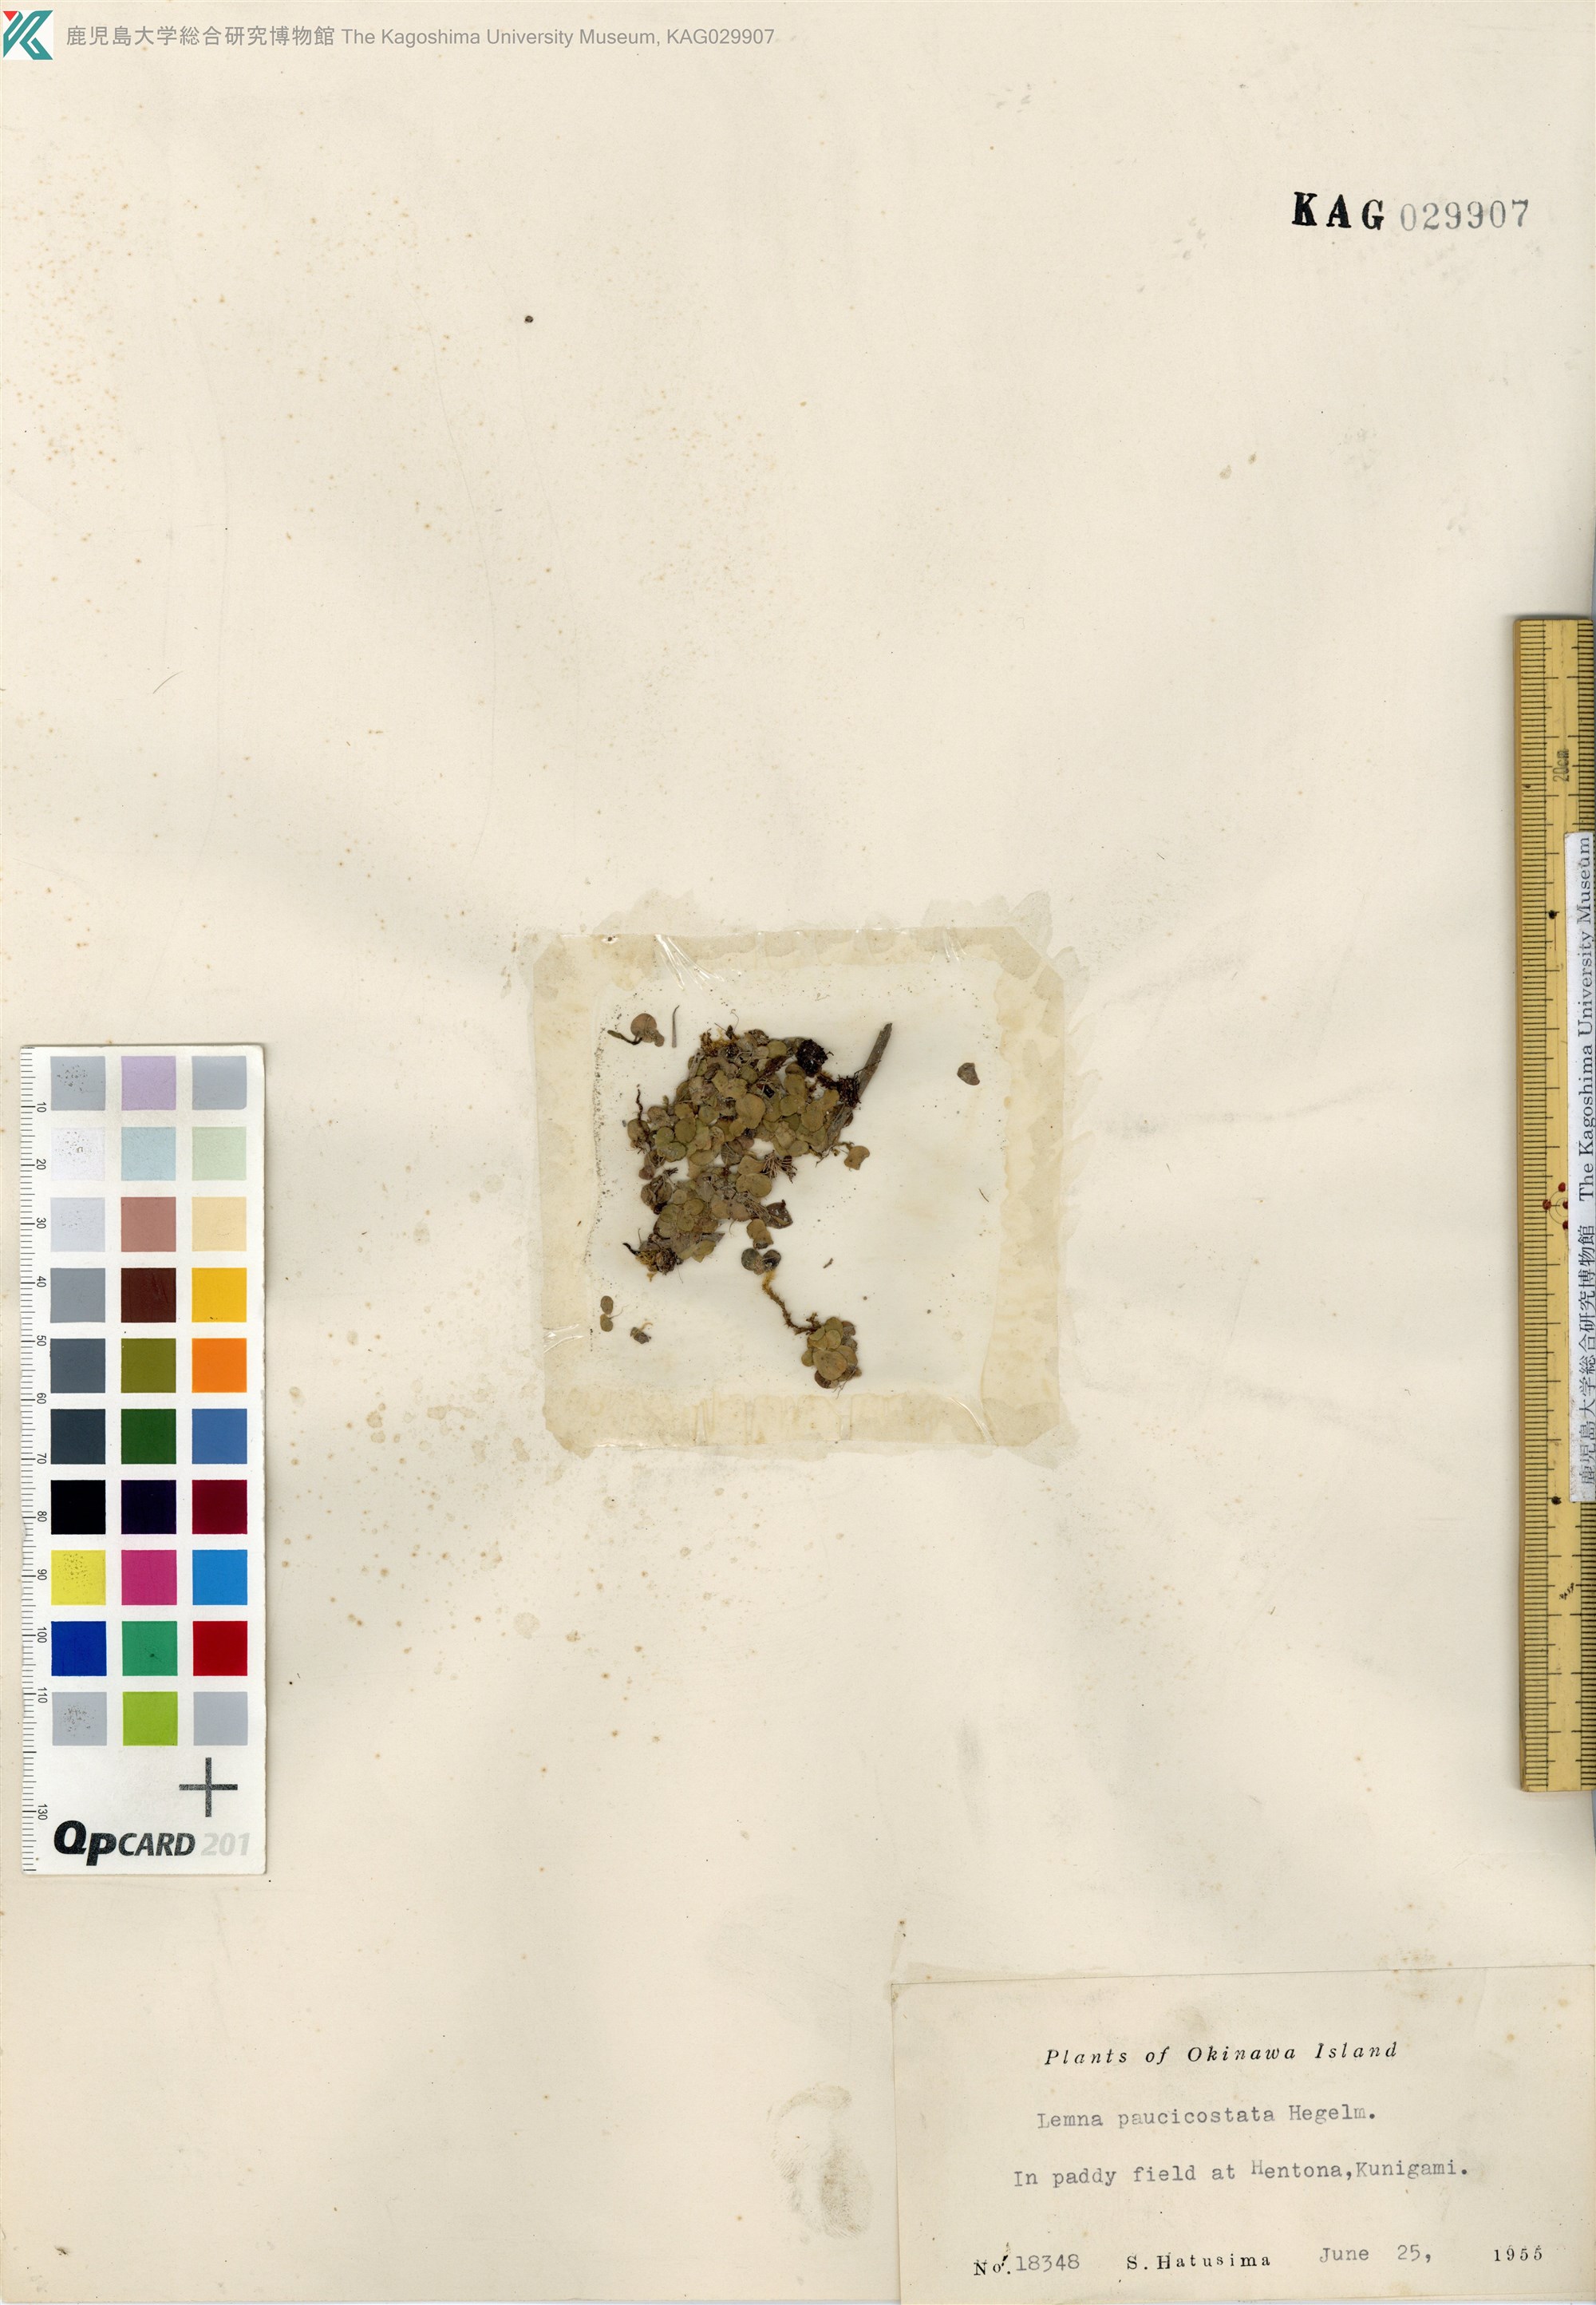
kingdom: Plantae
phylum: Tracheophyta
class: Liliopsida
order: Alismatales
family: Araceae
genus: Lemna
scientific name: Lemna aequinoctialis
